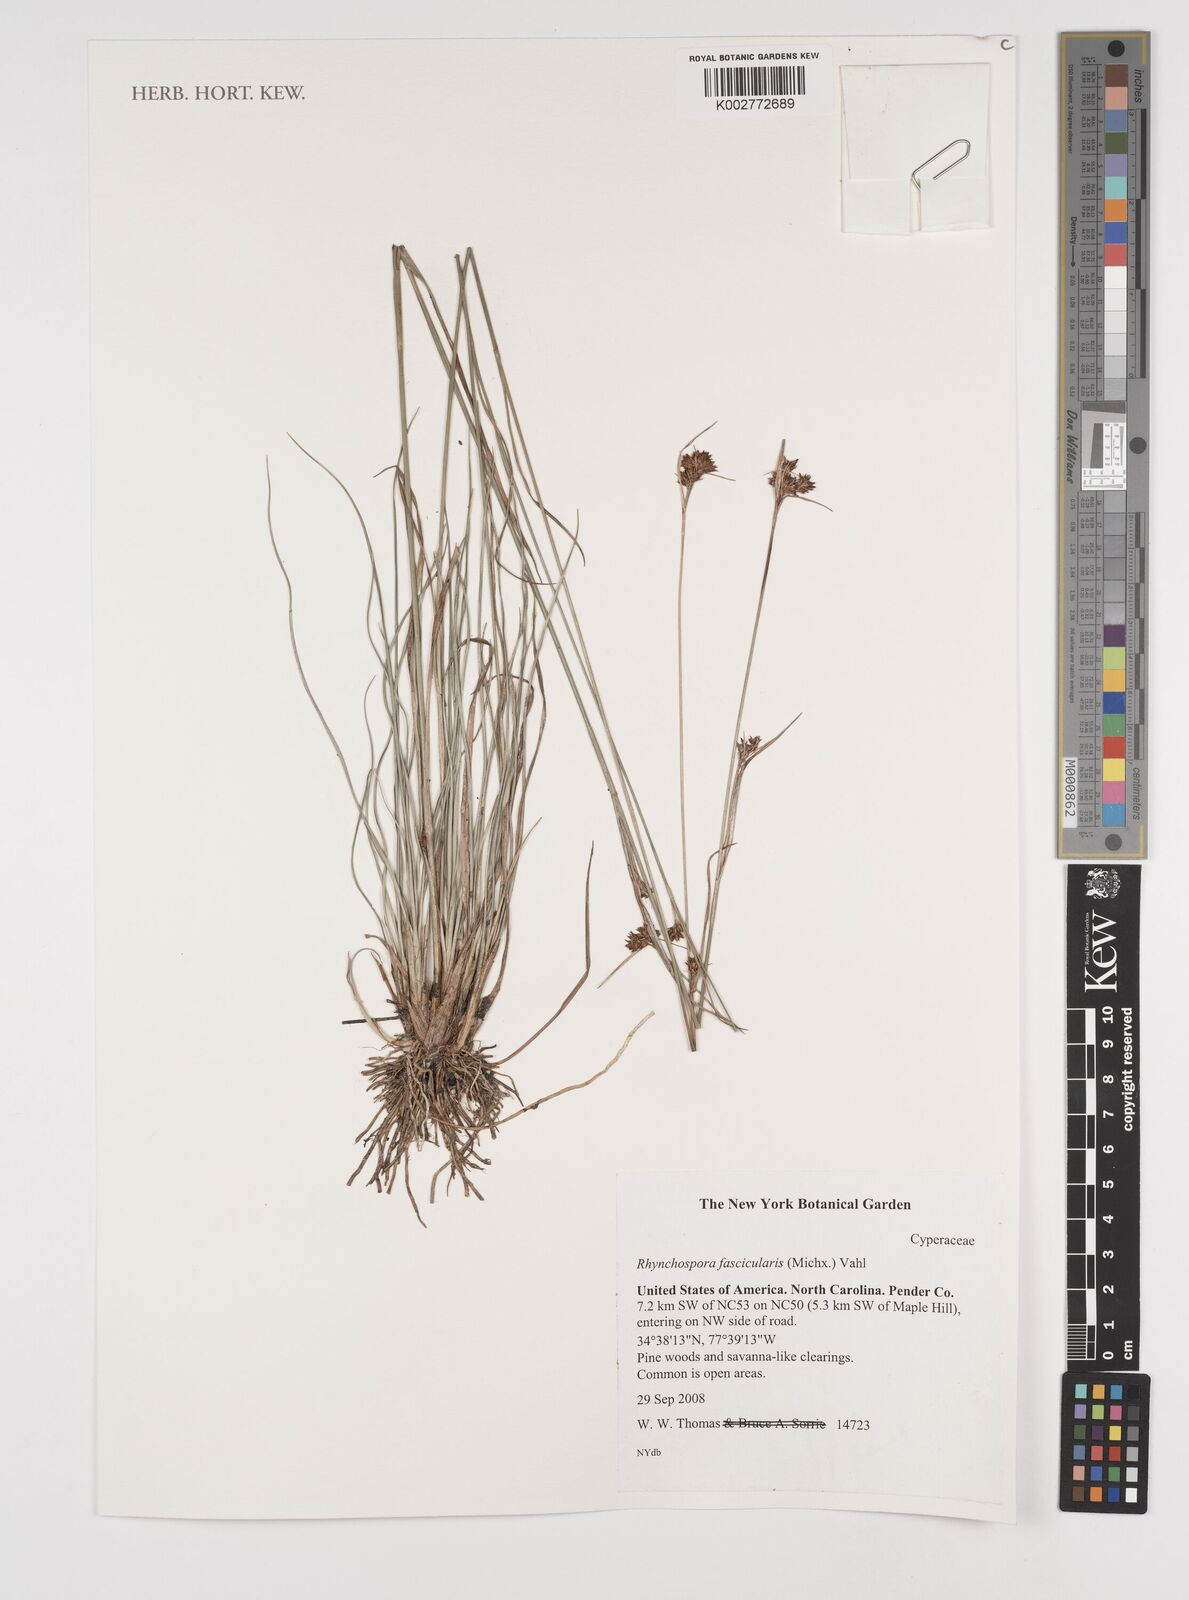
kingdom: Plantae
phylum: Tracheophyta
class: Liliopsida
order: Poales
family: Cyperaceae
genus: Rhynchospora
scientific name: Rhynchospora fascicularis
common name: Fascicled beak sedge
